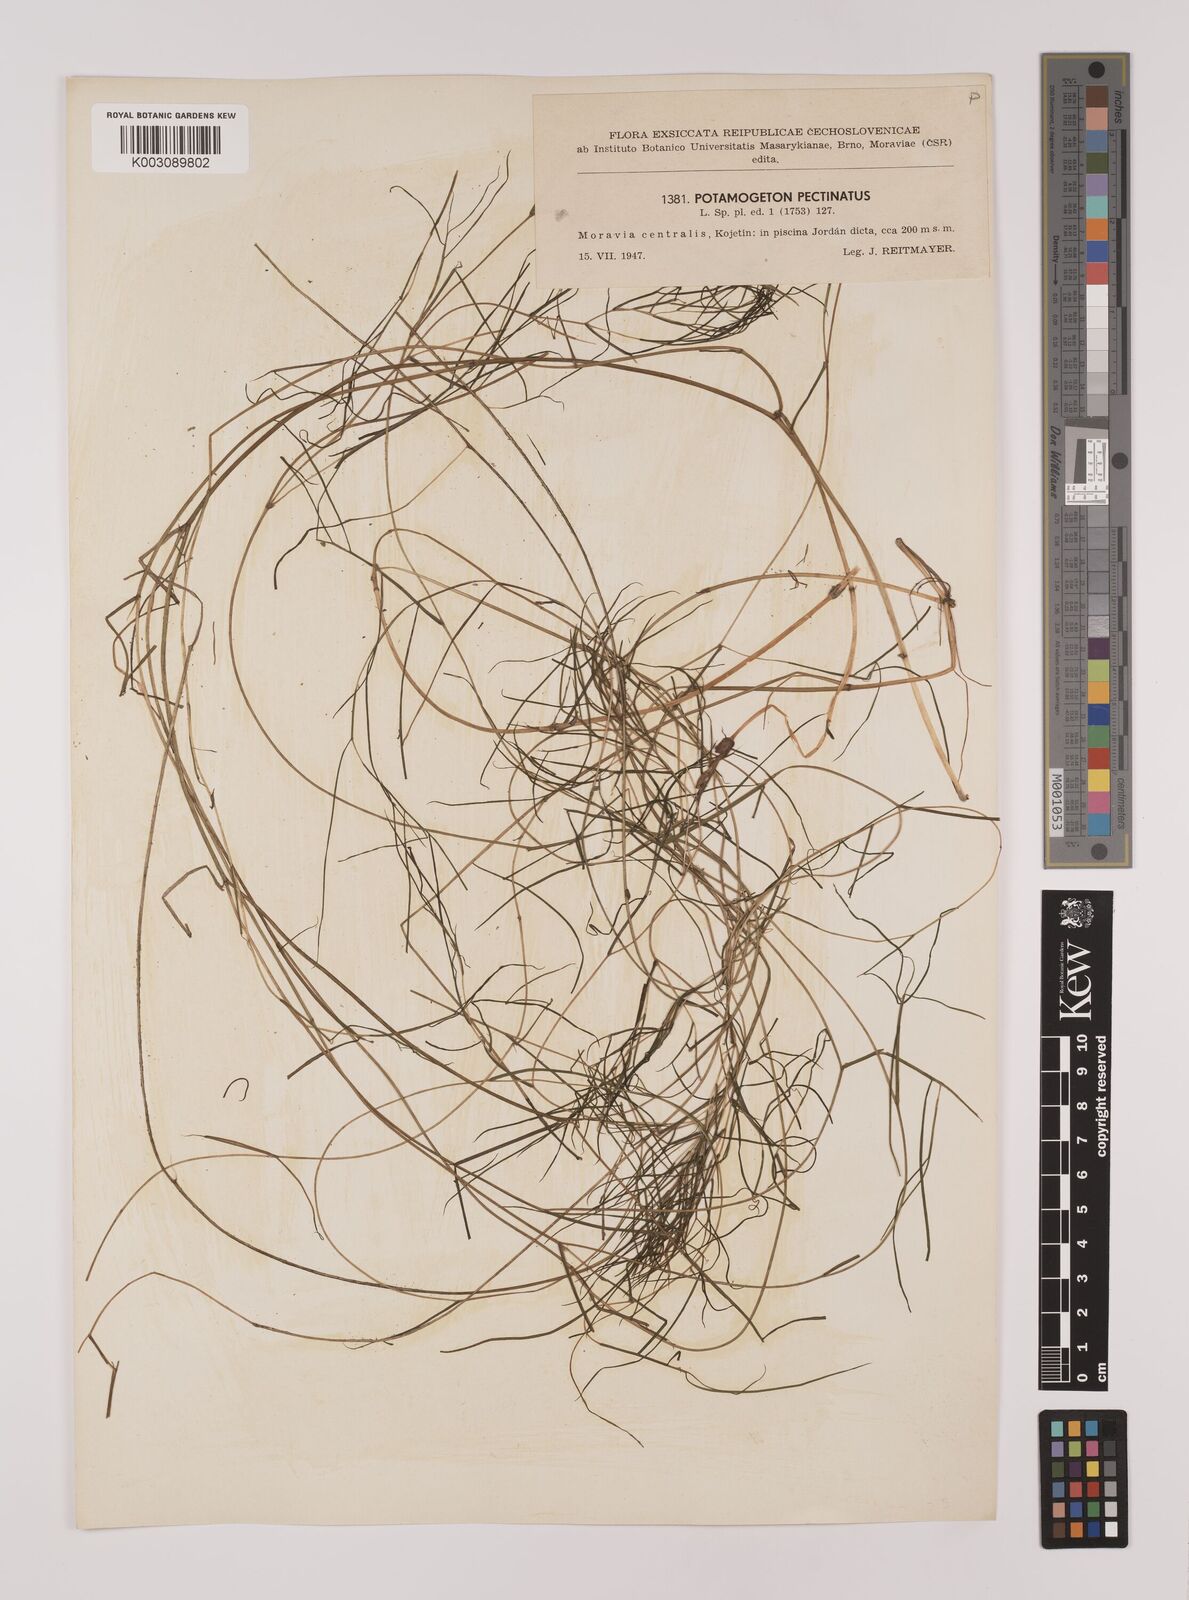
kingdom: Plantae
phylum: Tracheophyta
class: Liliopsida
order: Alismatales
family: Potamogetonaceae
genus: Stuckenia
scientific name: Stuckenia pectinata
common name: Sago pondweed
